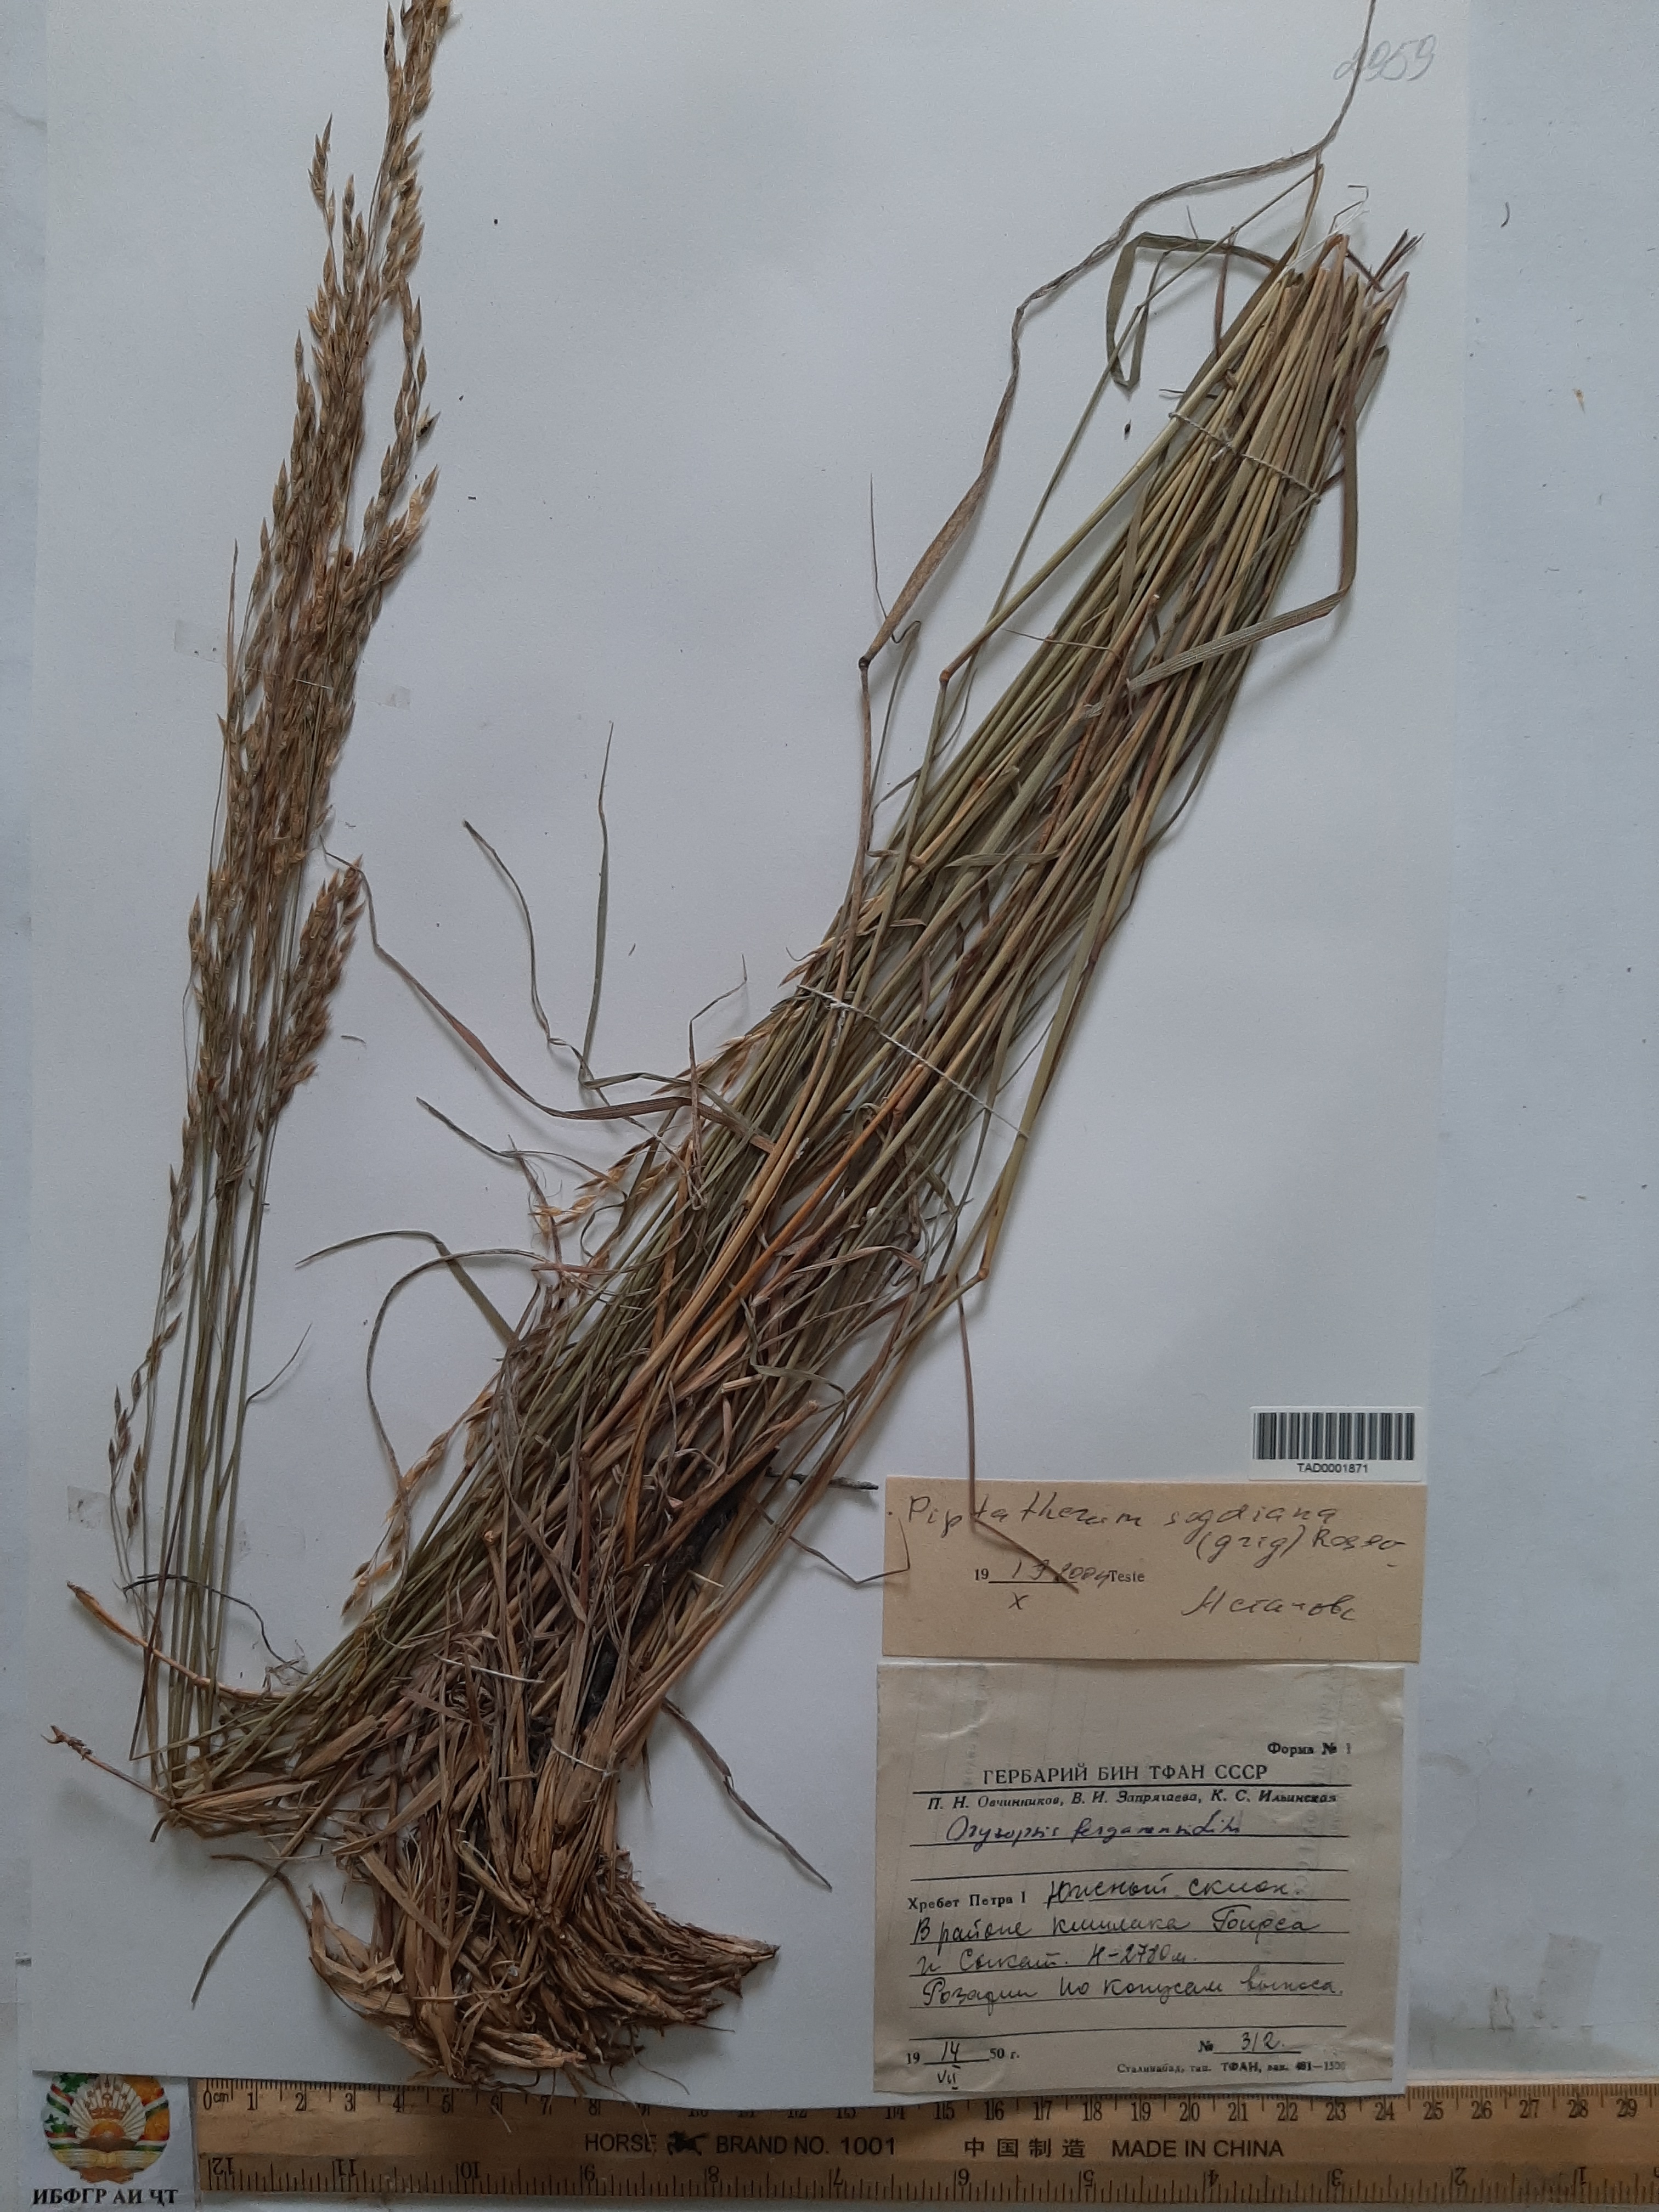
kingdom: Plantae
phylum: Tracheophyta
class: Liliopsida
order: Poales
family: Poaceae
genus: Piptatherum
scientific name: Piptatherum sogdianum
